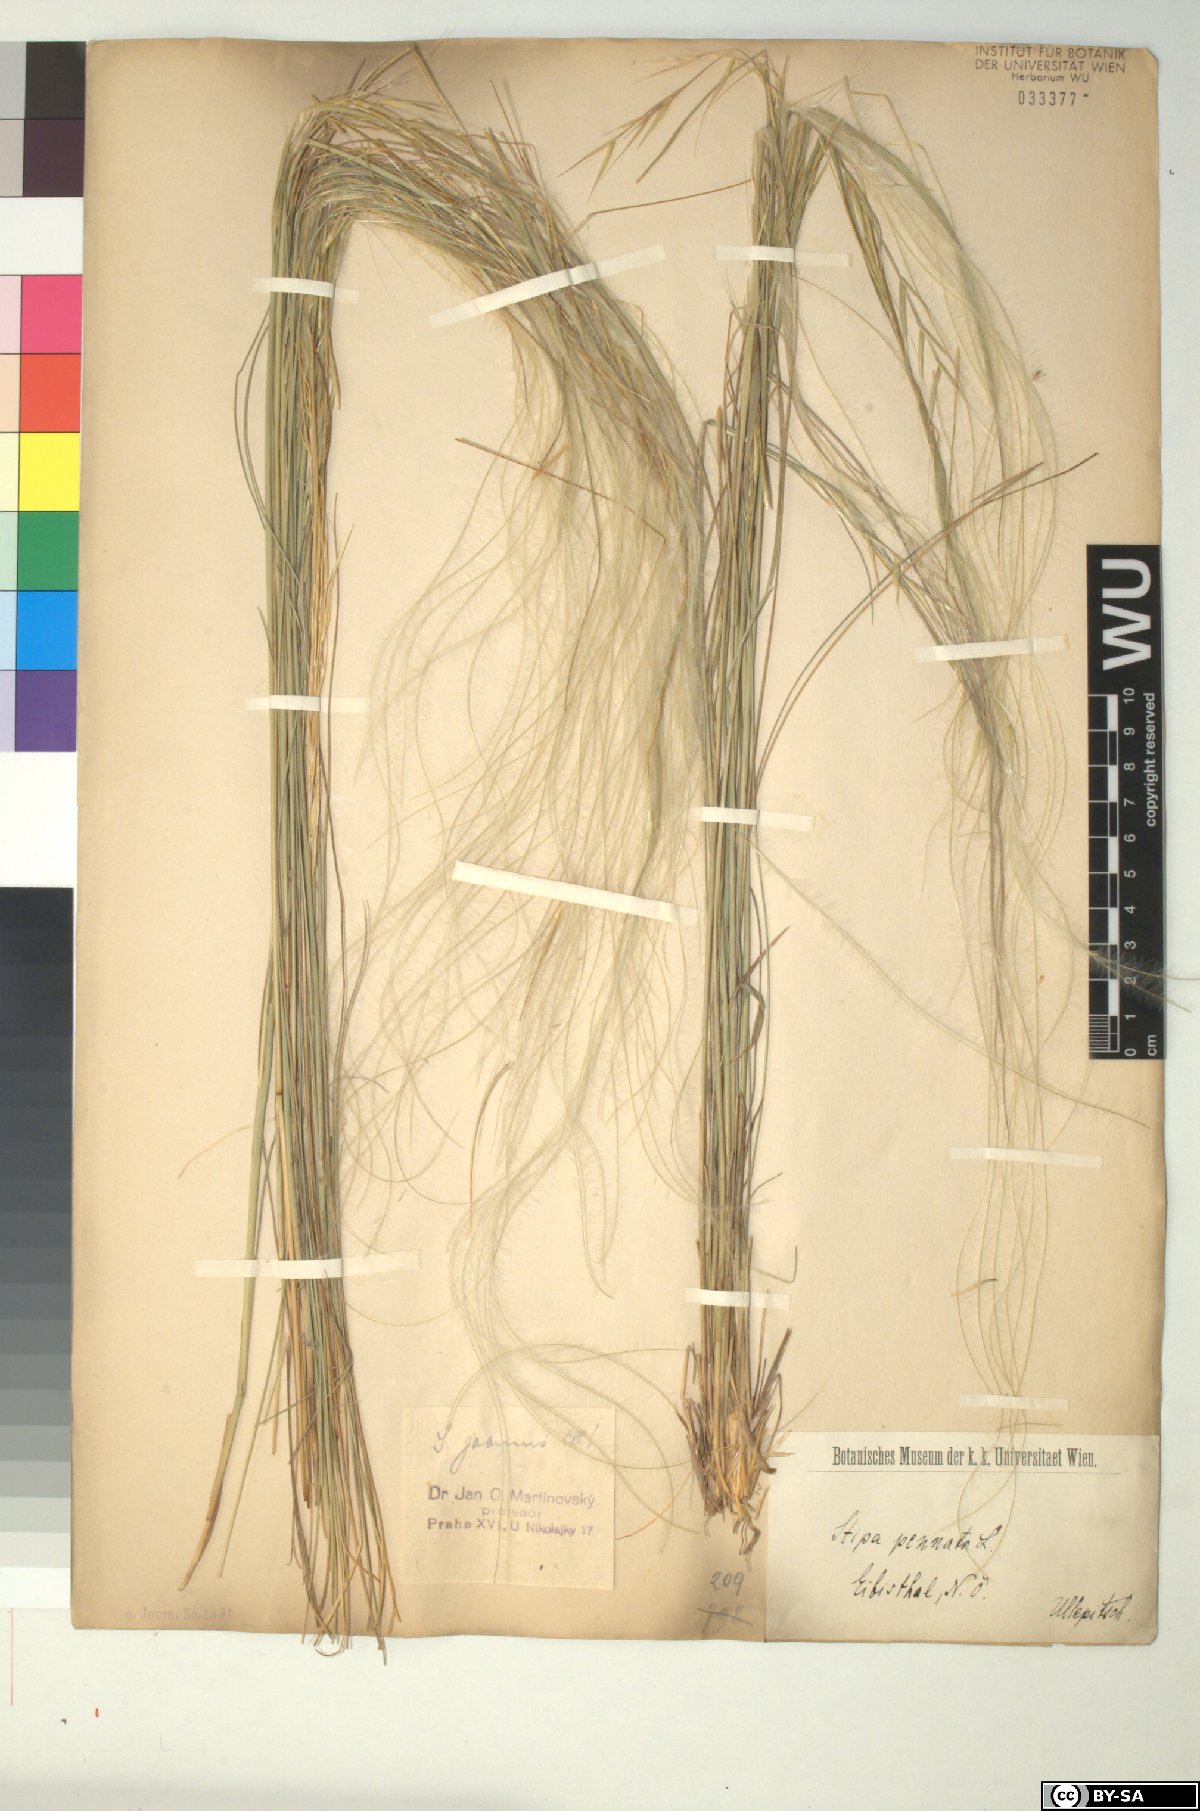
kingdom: Plantae
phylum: Tracheophyta
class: Liliopsida
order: Poales
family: Poaceae
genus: Stipa
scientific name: Stipa pennata
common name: European feather grass
